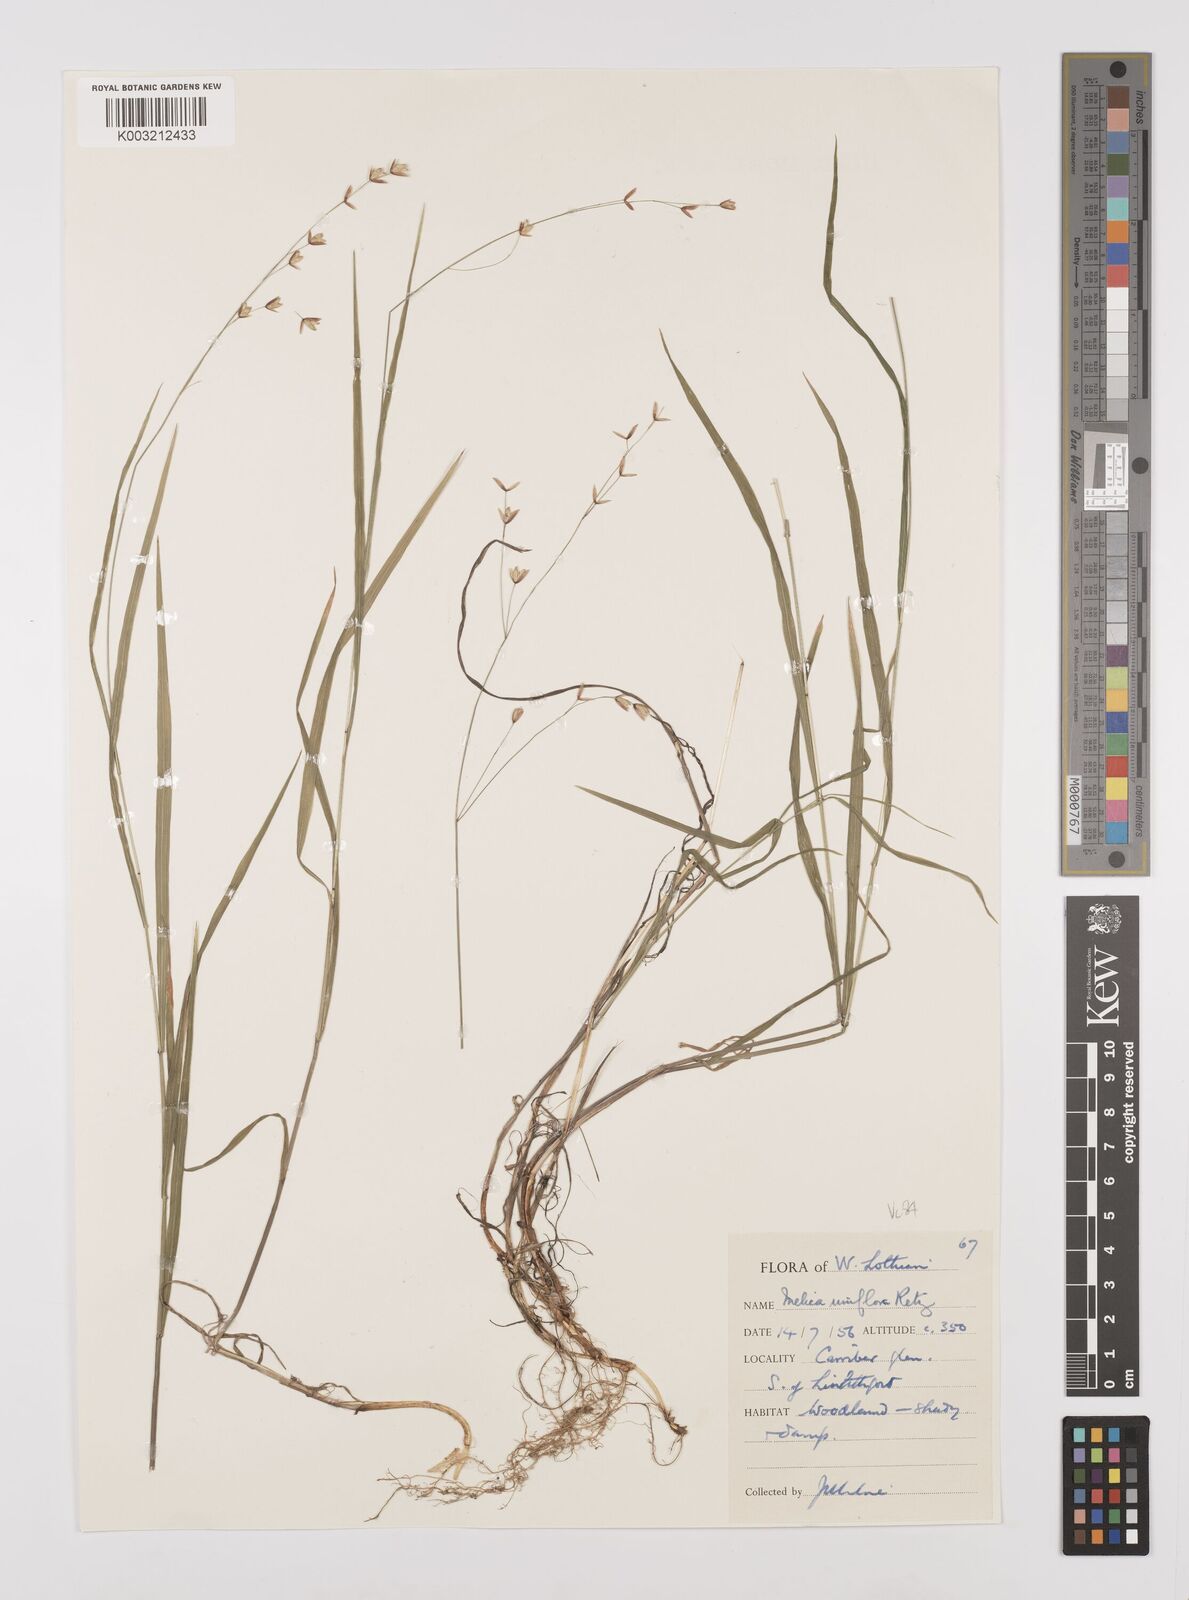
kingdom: Plantae
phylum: Tracheophyta
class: Liliopsida
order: Poales
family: Poaceae
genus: Melica
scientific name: Melica uniflora
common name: Wood melick
